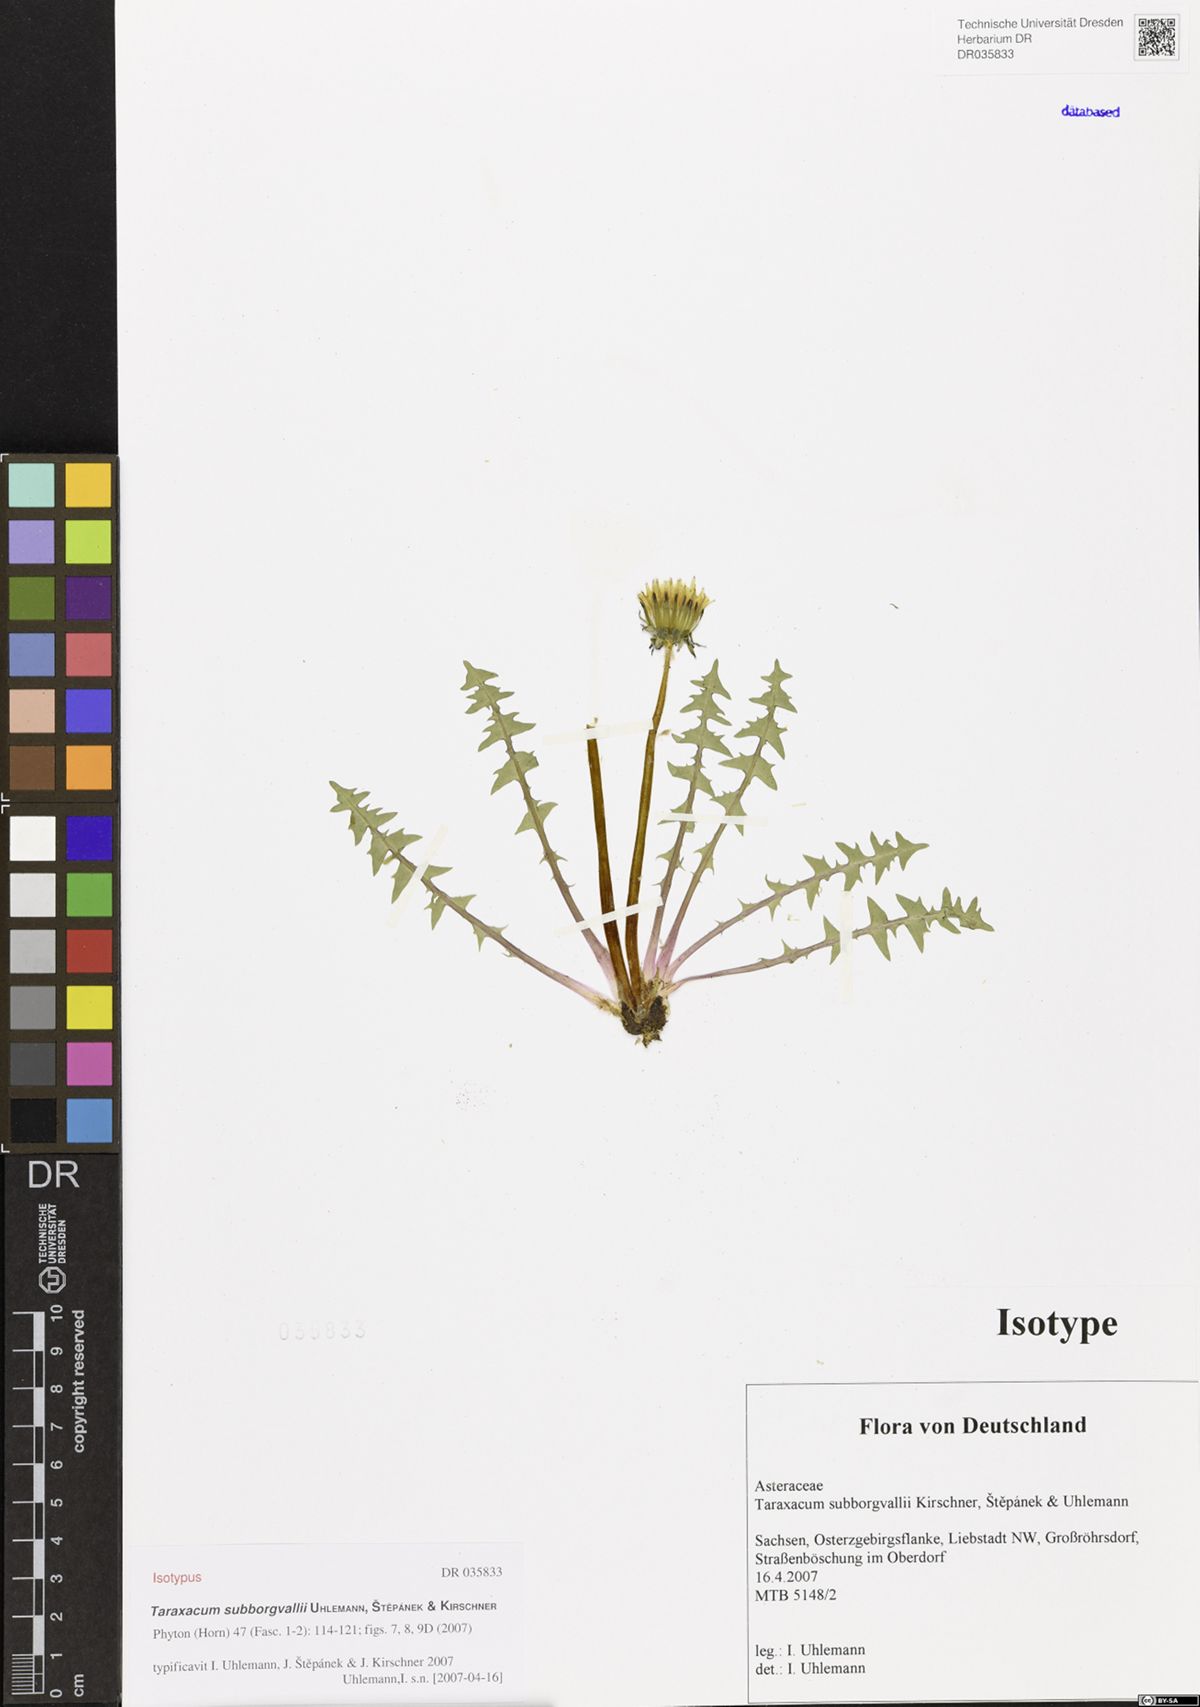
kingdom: Plantae
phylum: Tracheophyta
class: Magnoliopsida
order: Asterales
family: Asteraceae
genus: Taraxacum
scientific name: Taraxacum subborgvallii
